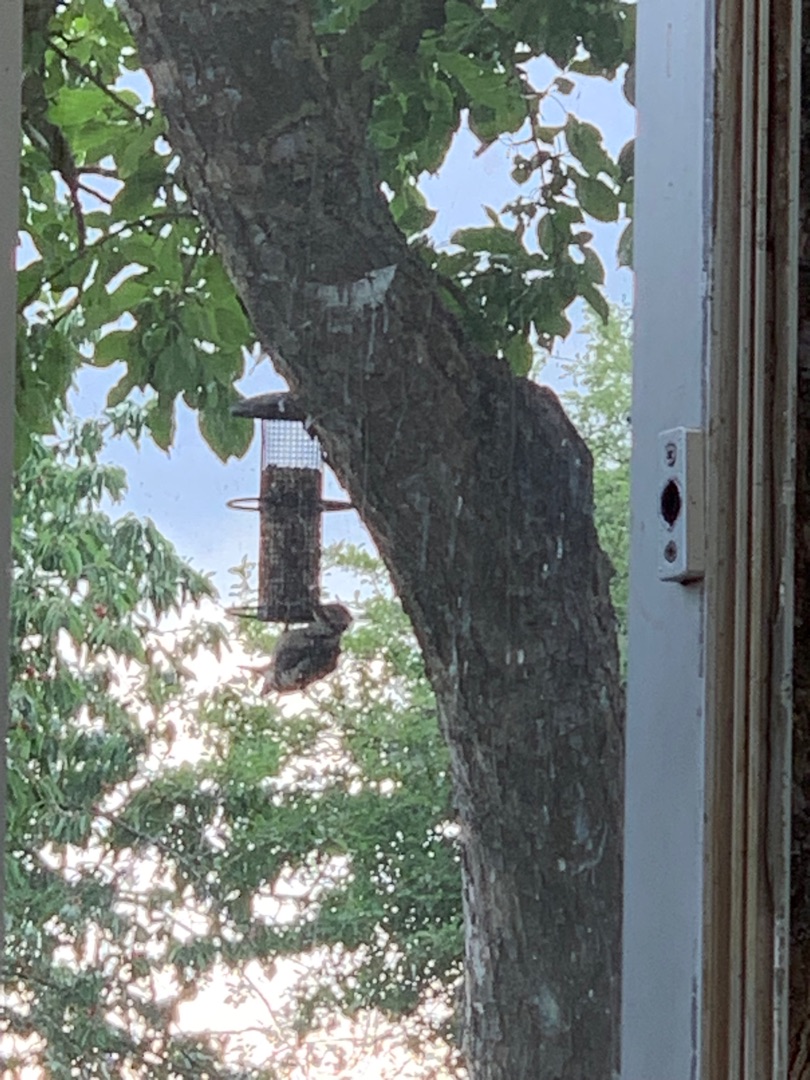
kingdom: Animalia
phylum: Chordata
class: Aves
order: Piciformes
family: Picidae
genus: Dendrocopos
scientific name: Dendrocopos major
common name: Stor flagspætte
